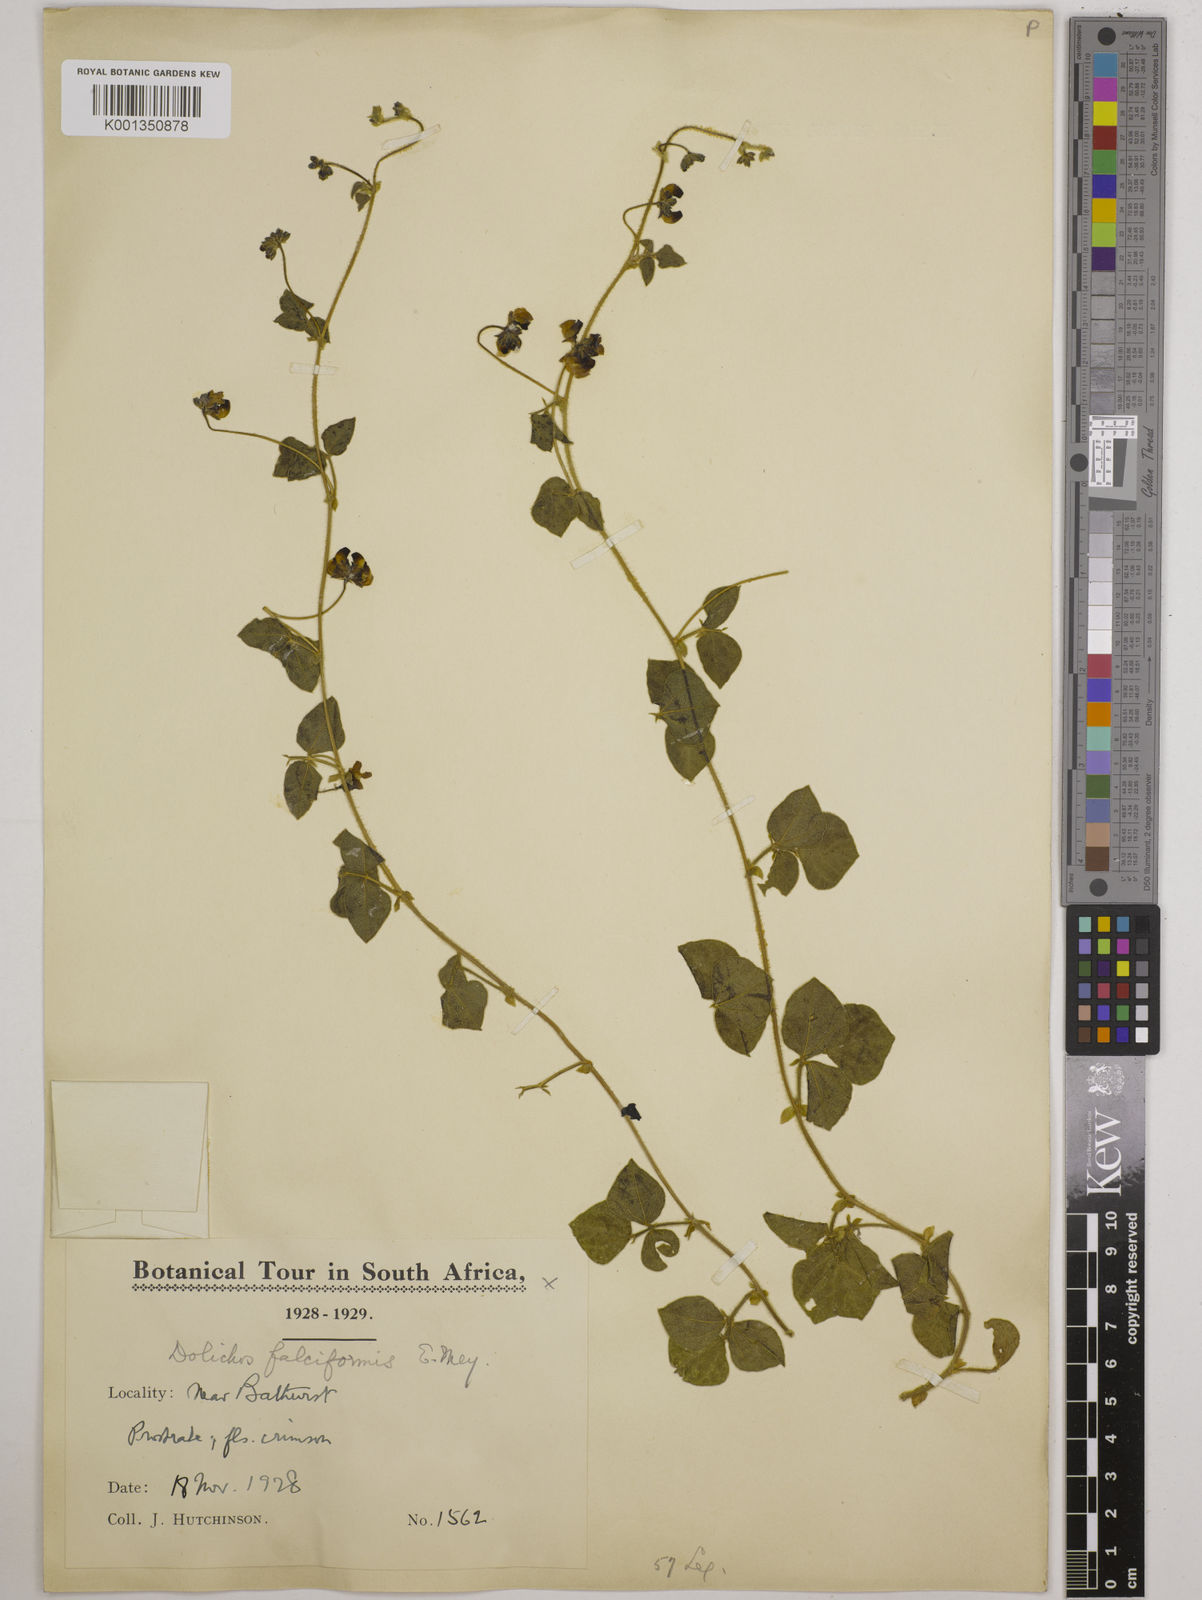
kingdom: Plantae
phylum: Tracheophyta
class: Magnoliopsida
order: Fabales
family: Fabaceae
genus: Dolichos
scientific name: Dolichos falciformis
